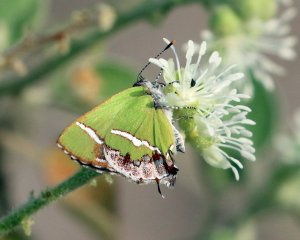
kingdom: Animalia
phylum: Arthropoda
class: Insecta
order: Lepidoptera
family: Lycaenidae
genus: Chlorostrymon
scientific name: Chlorostrymon simaethis
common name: Silver-banded Hairstreak
